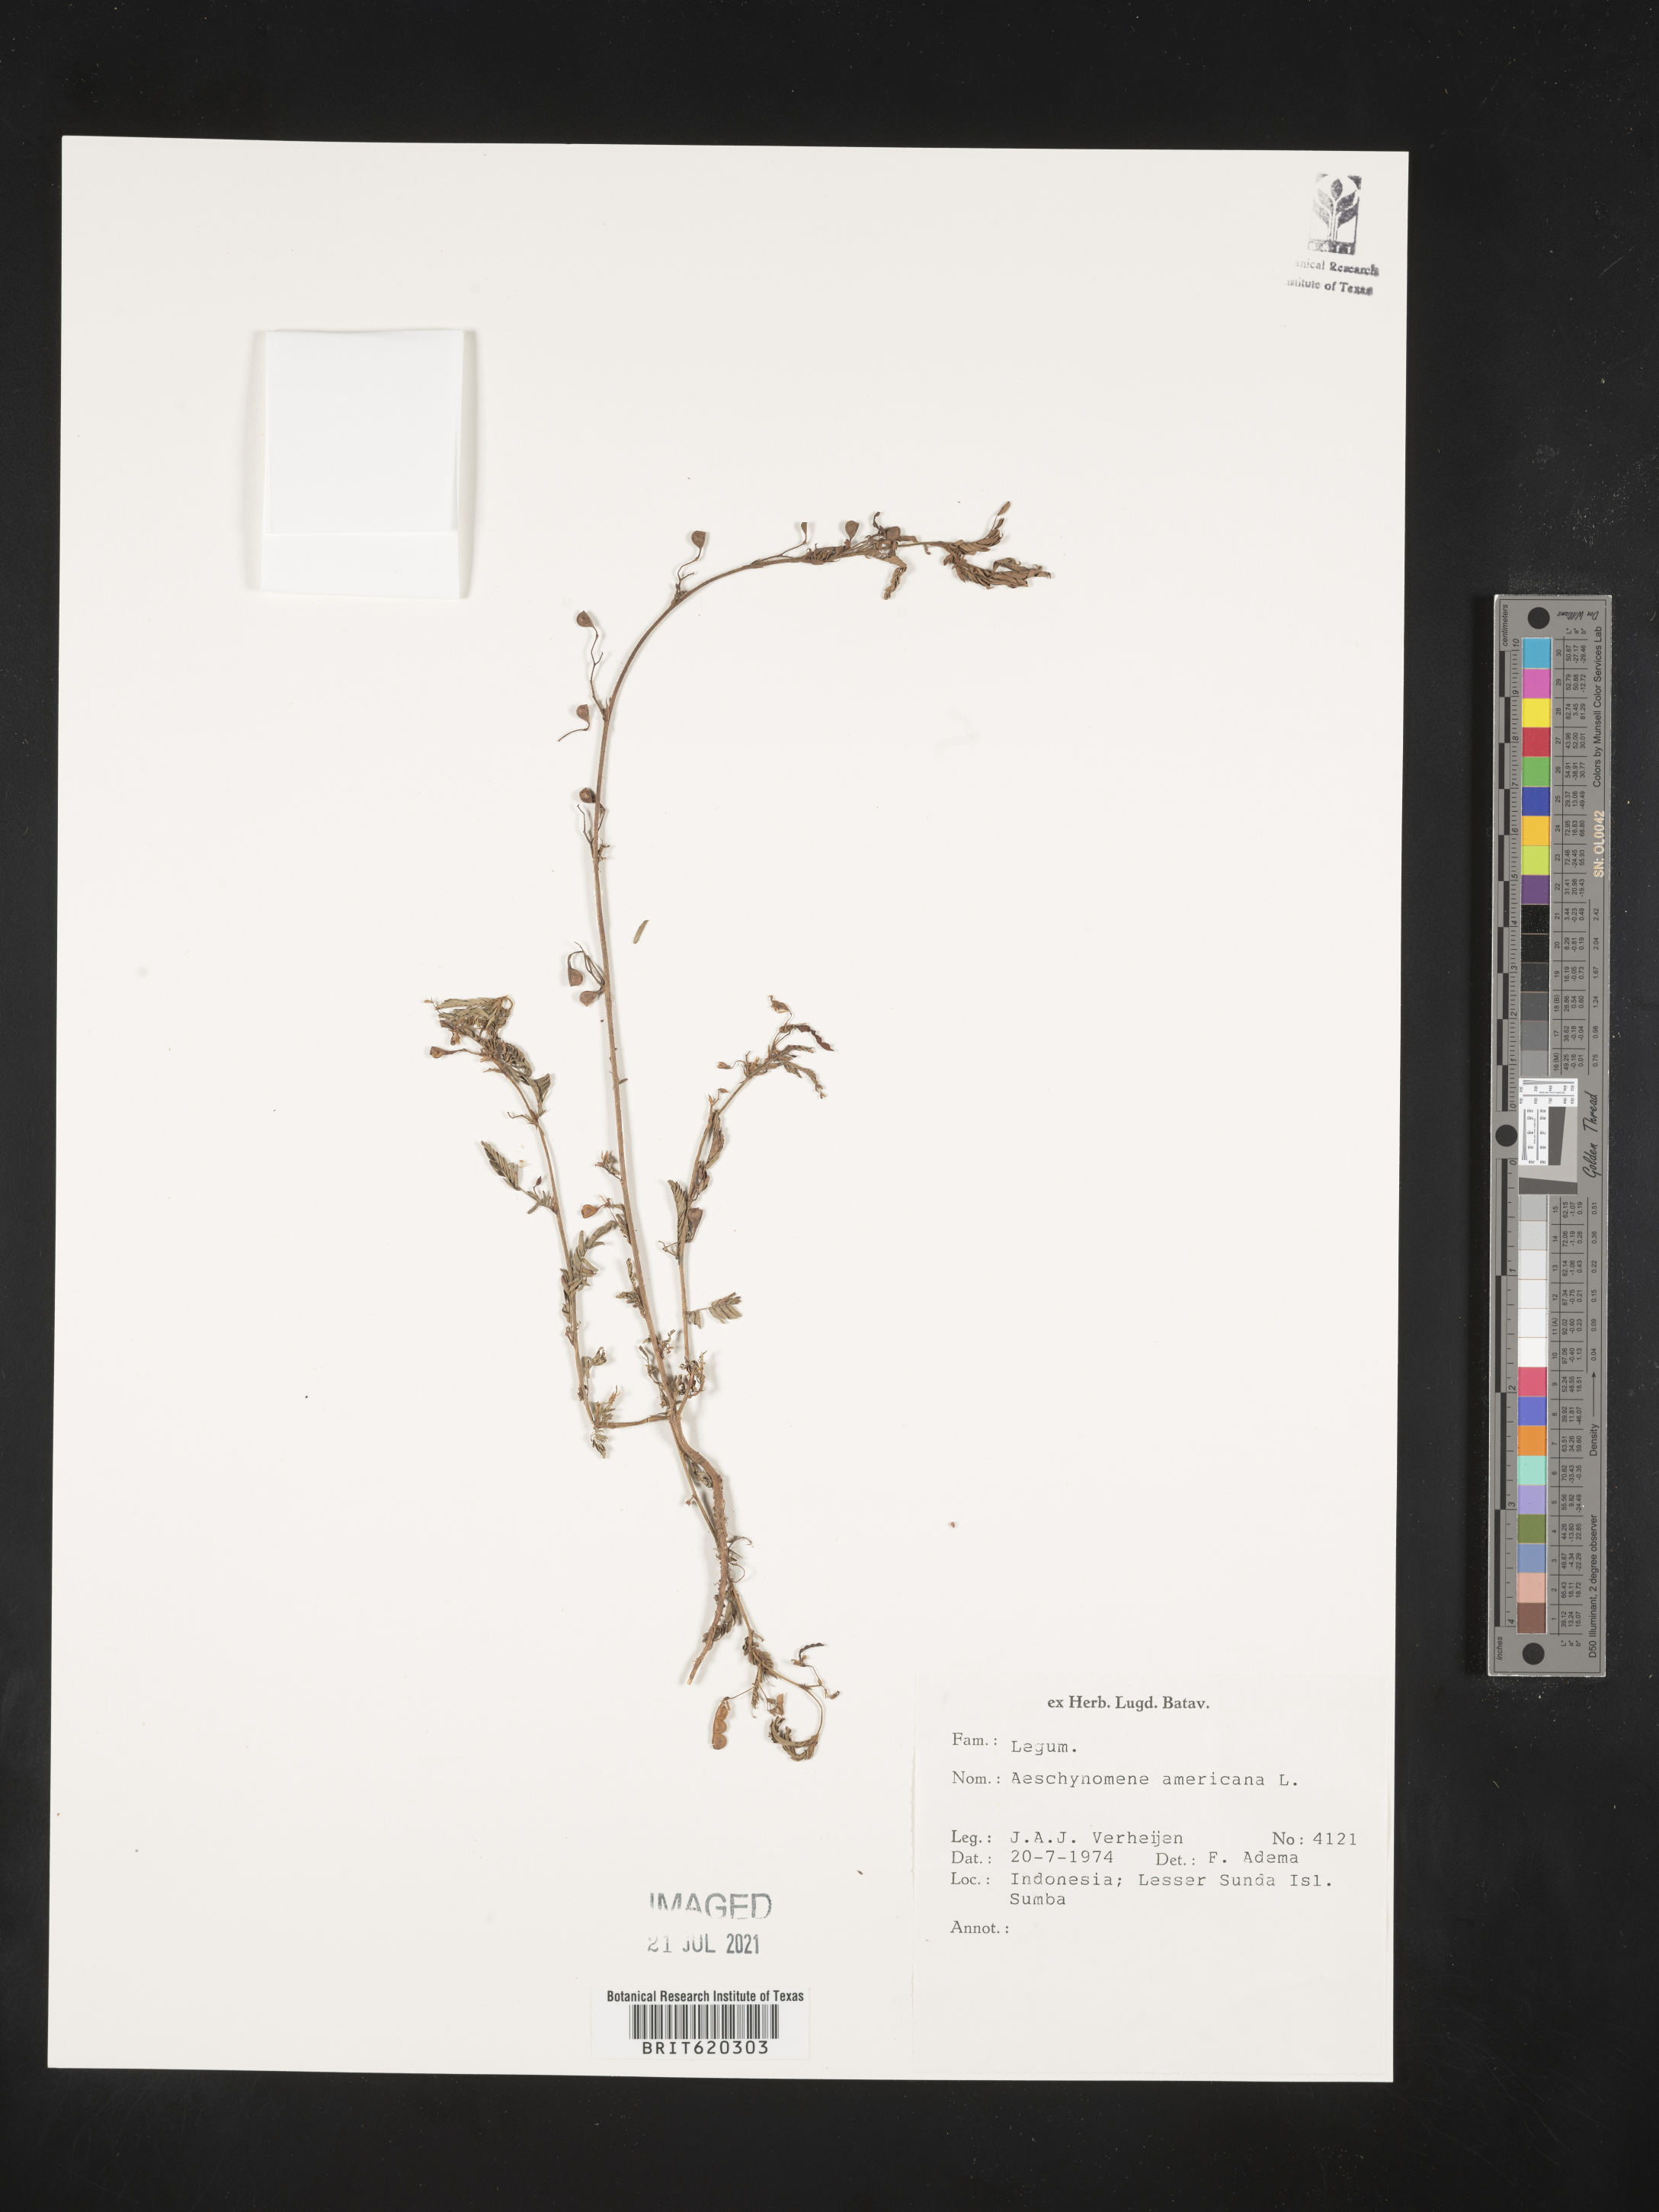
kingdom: Plantae
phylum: Tracheophyta
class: Magnoliopsida
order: Fabales
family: Fabaceae
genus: Aeschynomene
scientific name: Aeschynomene americana
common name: Joint-vetch
